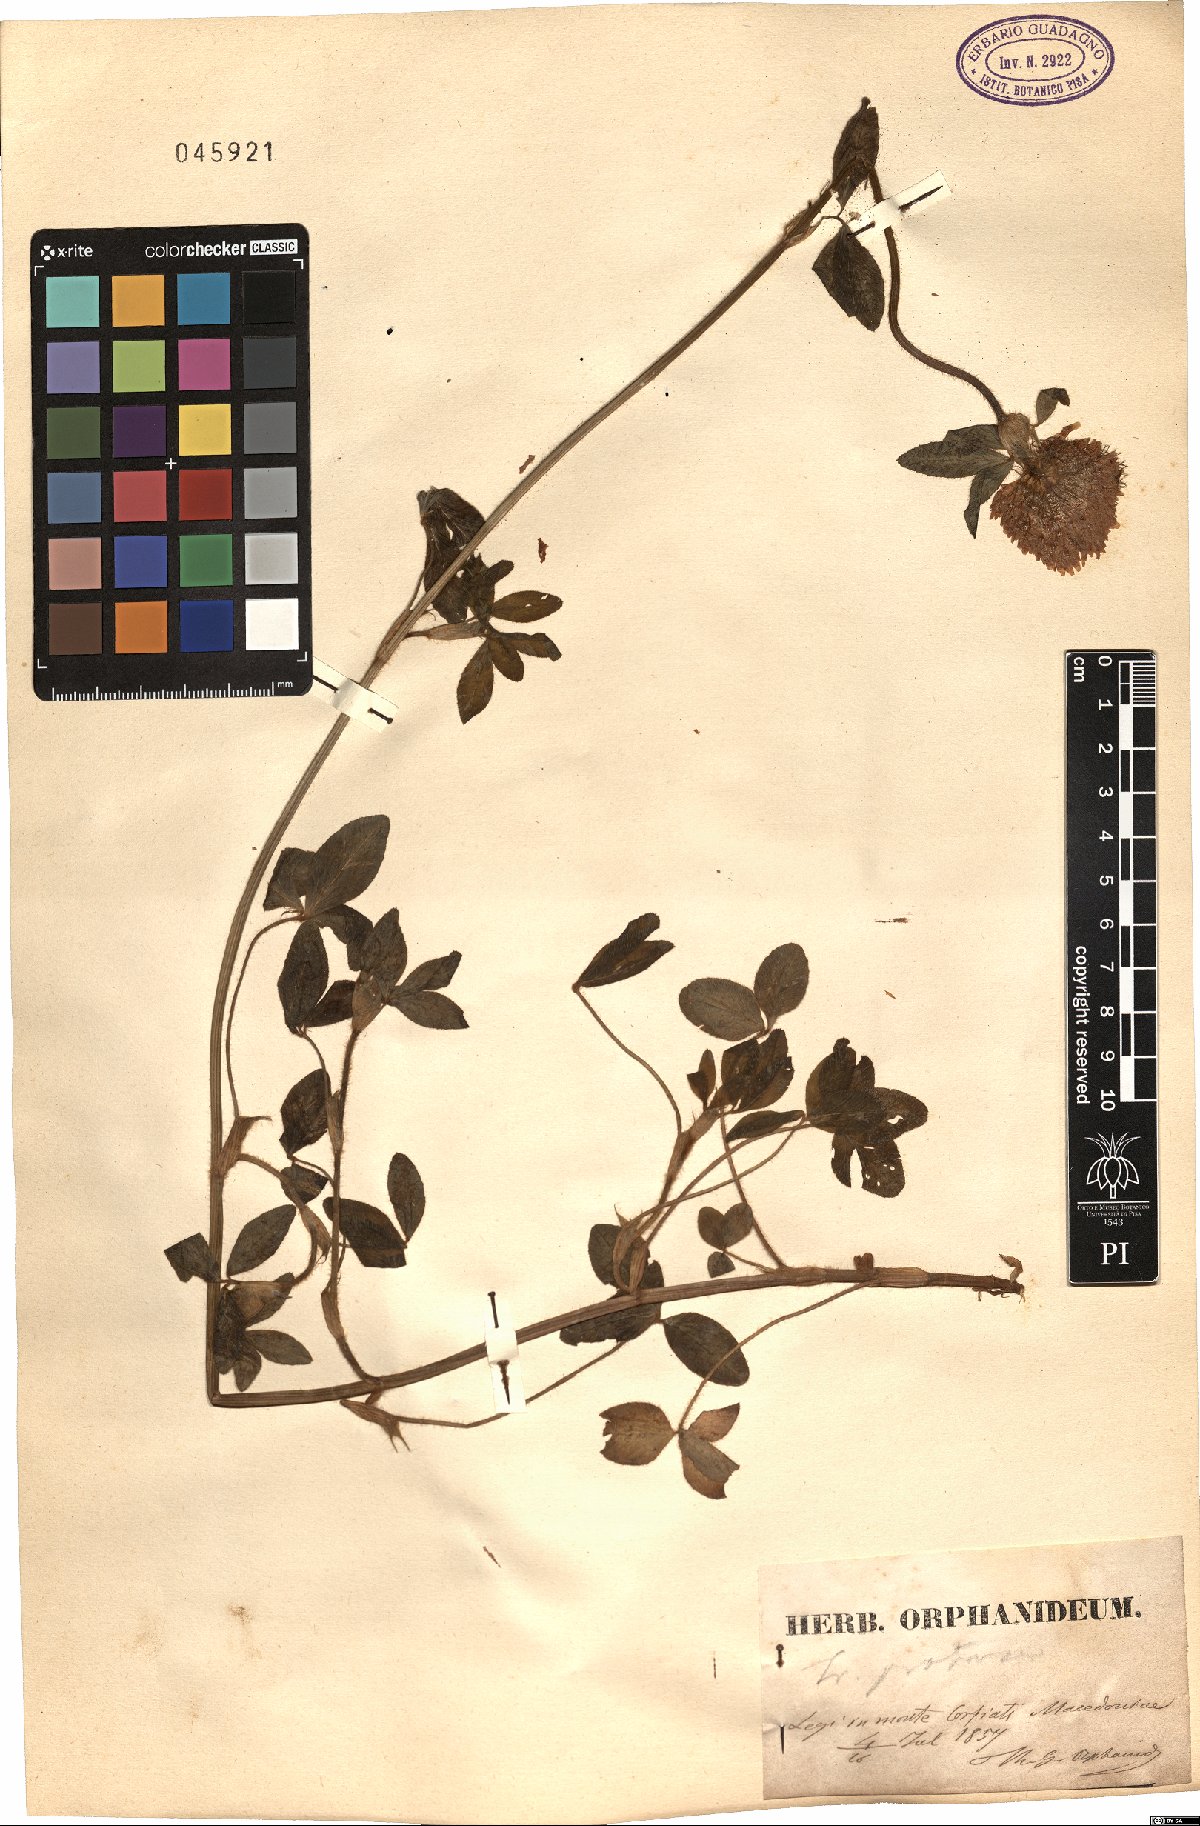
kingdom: Plantae
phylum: Tracheophyta
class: Magnoliopsida
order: Fabales
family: Fabaceae
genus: Trifolium
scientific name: Trifolium pratense
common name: Red clover
